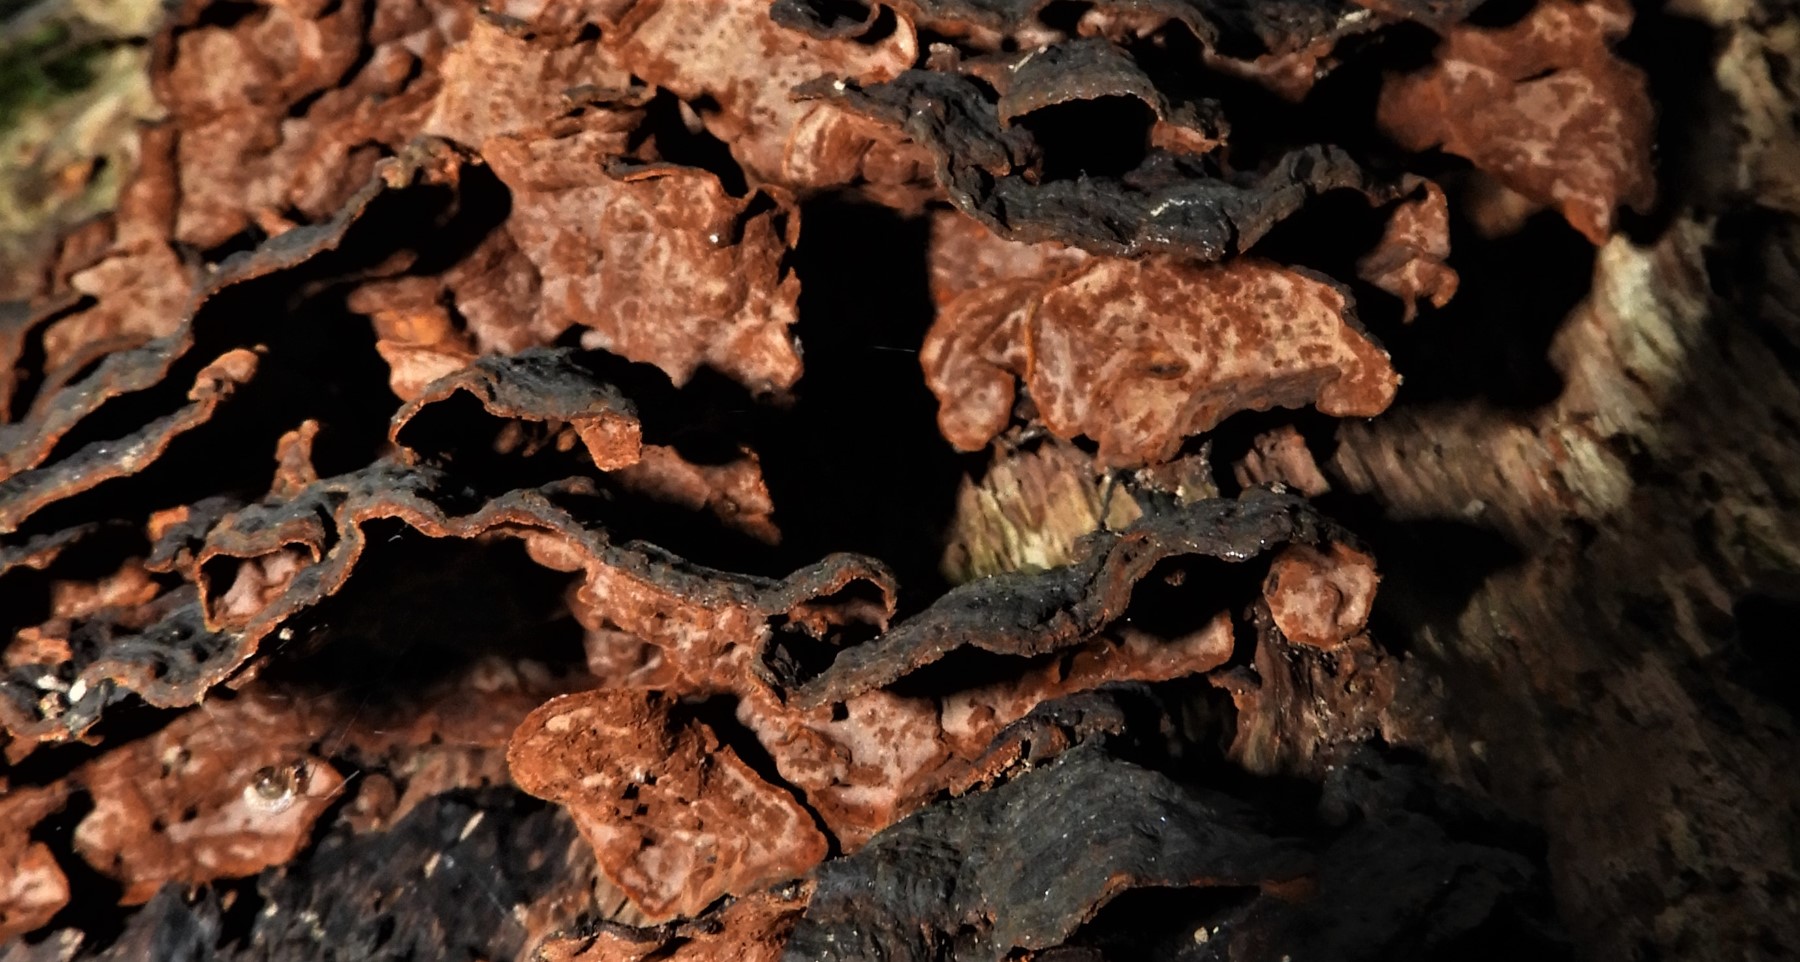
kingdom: Fungi
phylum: Basidiomycota
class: Agaricomycetes
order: Hymenochaetales
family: Hymenochaetaceae
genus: Hymenochaete
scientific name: Hymenochaete rubiginosa
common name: stiv ruslædersvamp
